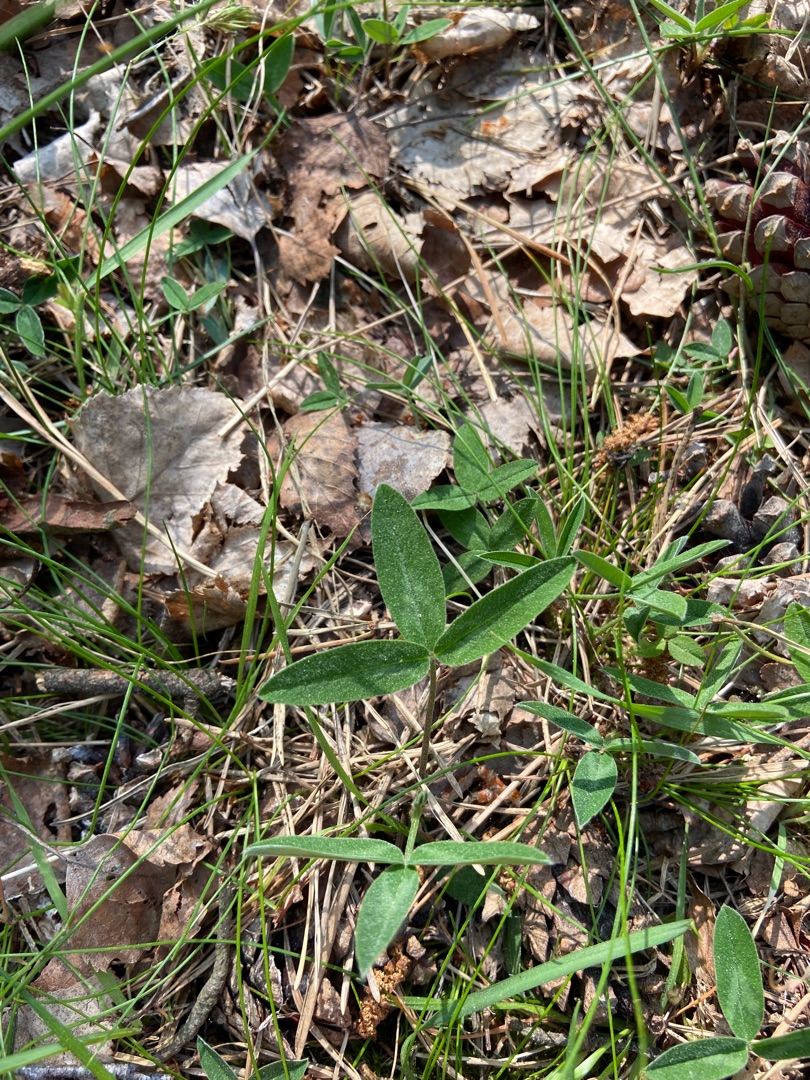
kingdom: Plantae
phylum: Tracheophyta
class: Magnoliopsida
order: Fabales
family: Fabaceae
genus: Trifolium
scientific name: Trifolium medium
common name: Bugtet kløver
